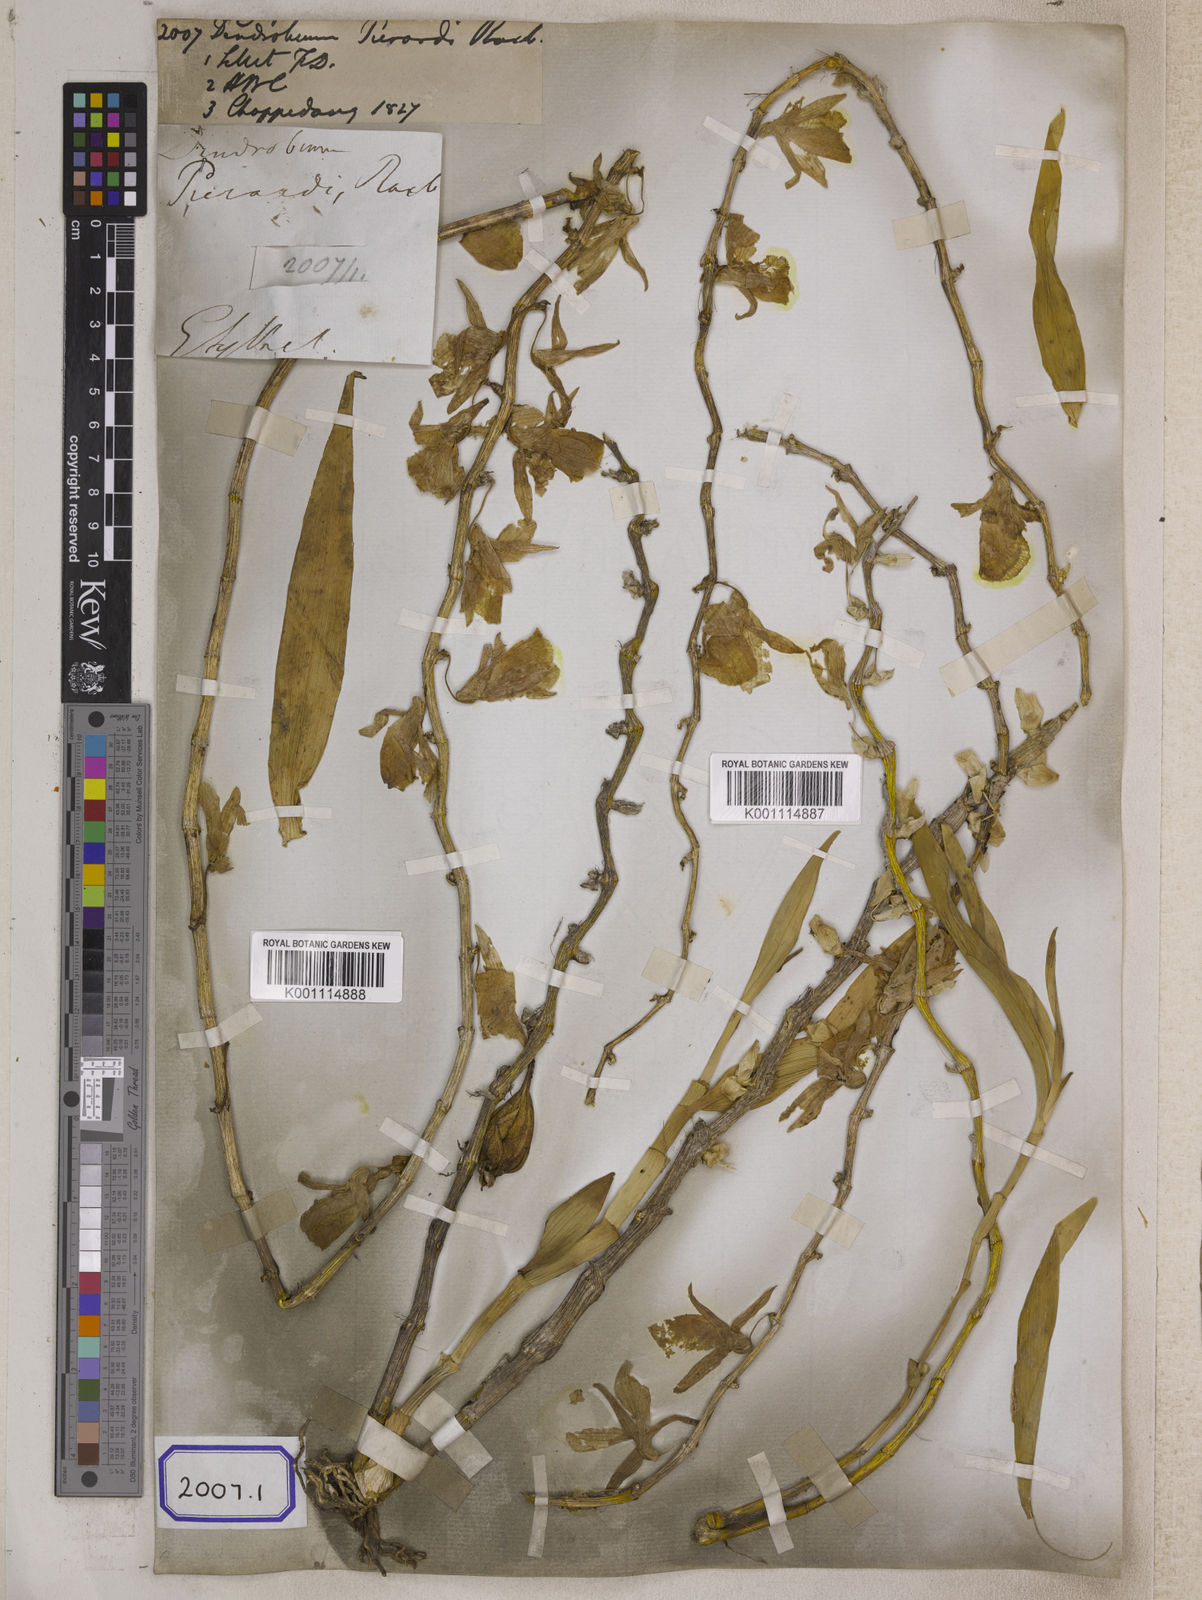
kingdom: Plantae
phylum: Tracheophyta
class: Liliopsida
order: Asparagales
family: Orchidaceae
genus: Dendrobium
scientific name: Dendrobium
